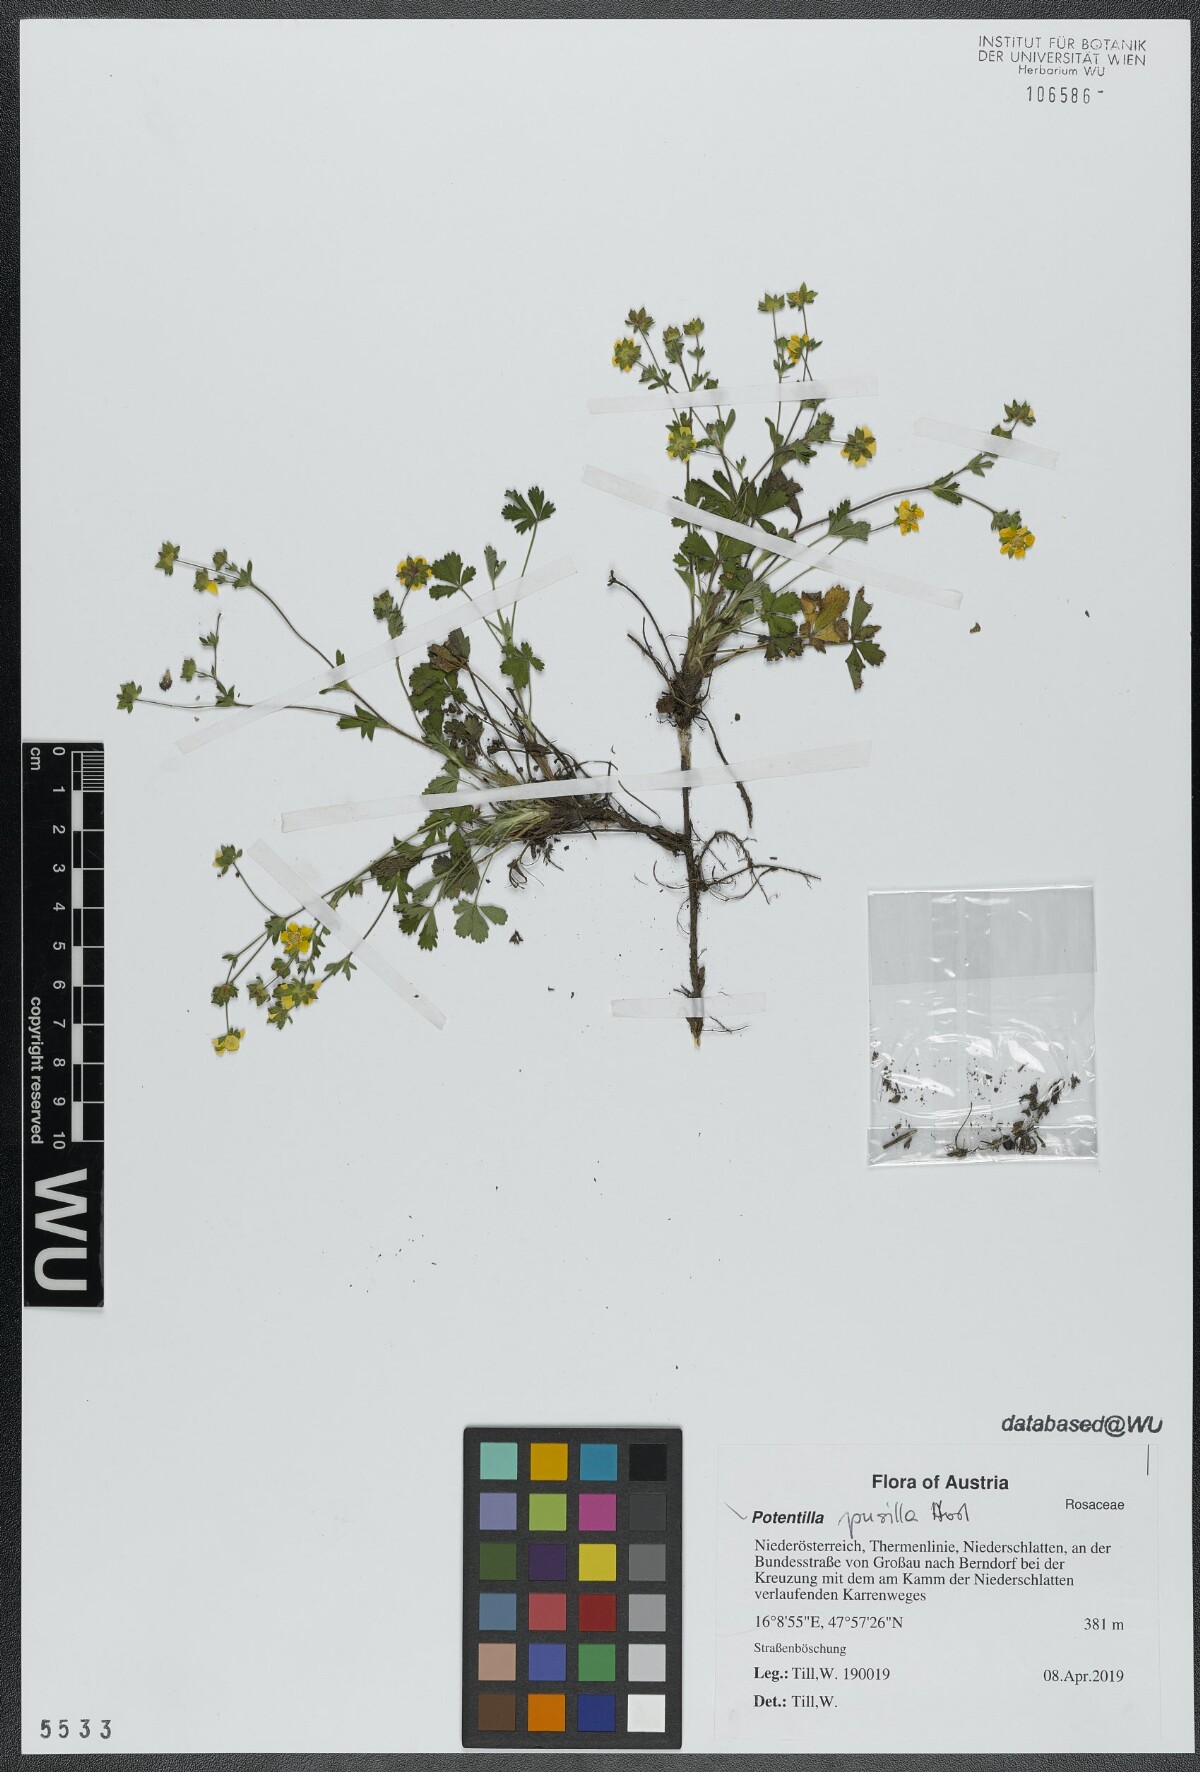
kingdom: Plantae
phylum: Tracheophyta
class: Magnoliopsida
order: Rosales
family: Rosaceae
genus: Potentilla
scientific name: Potentilla pusilla
